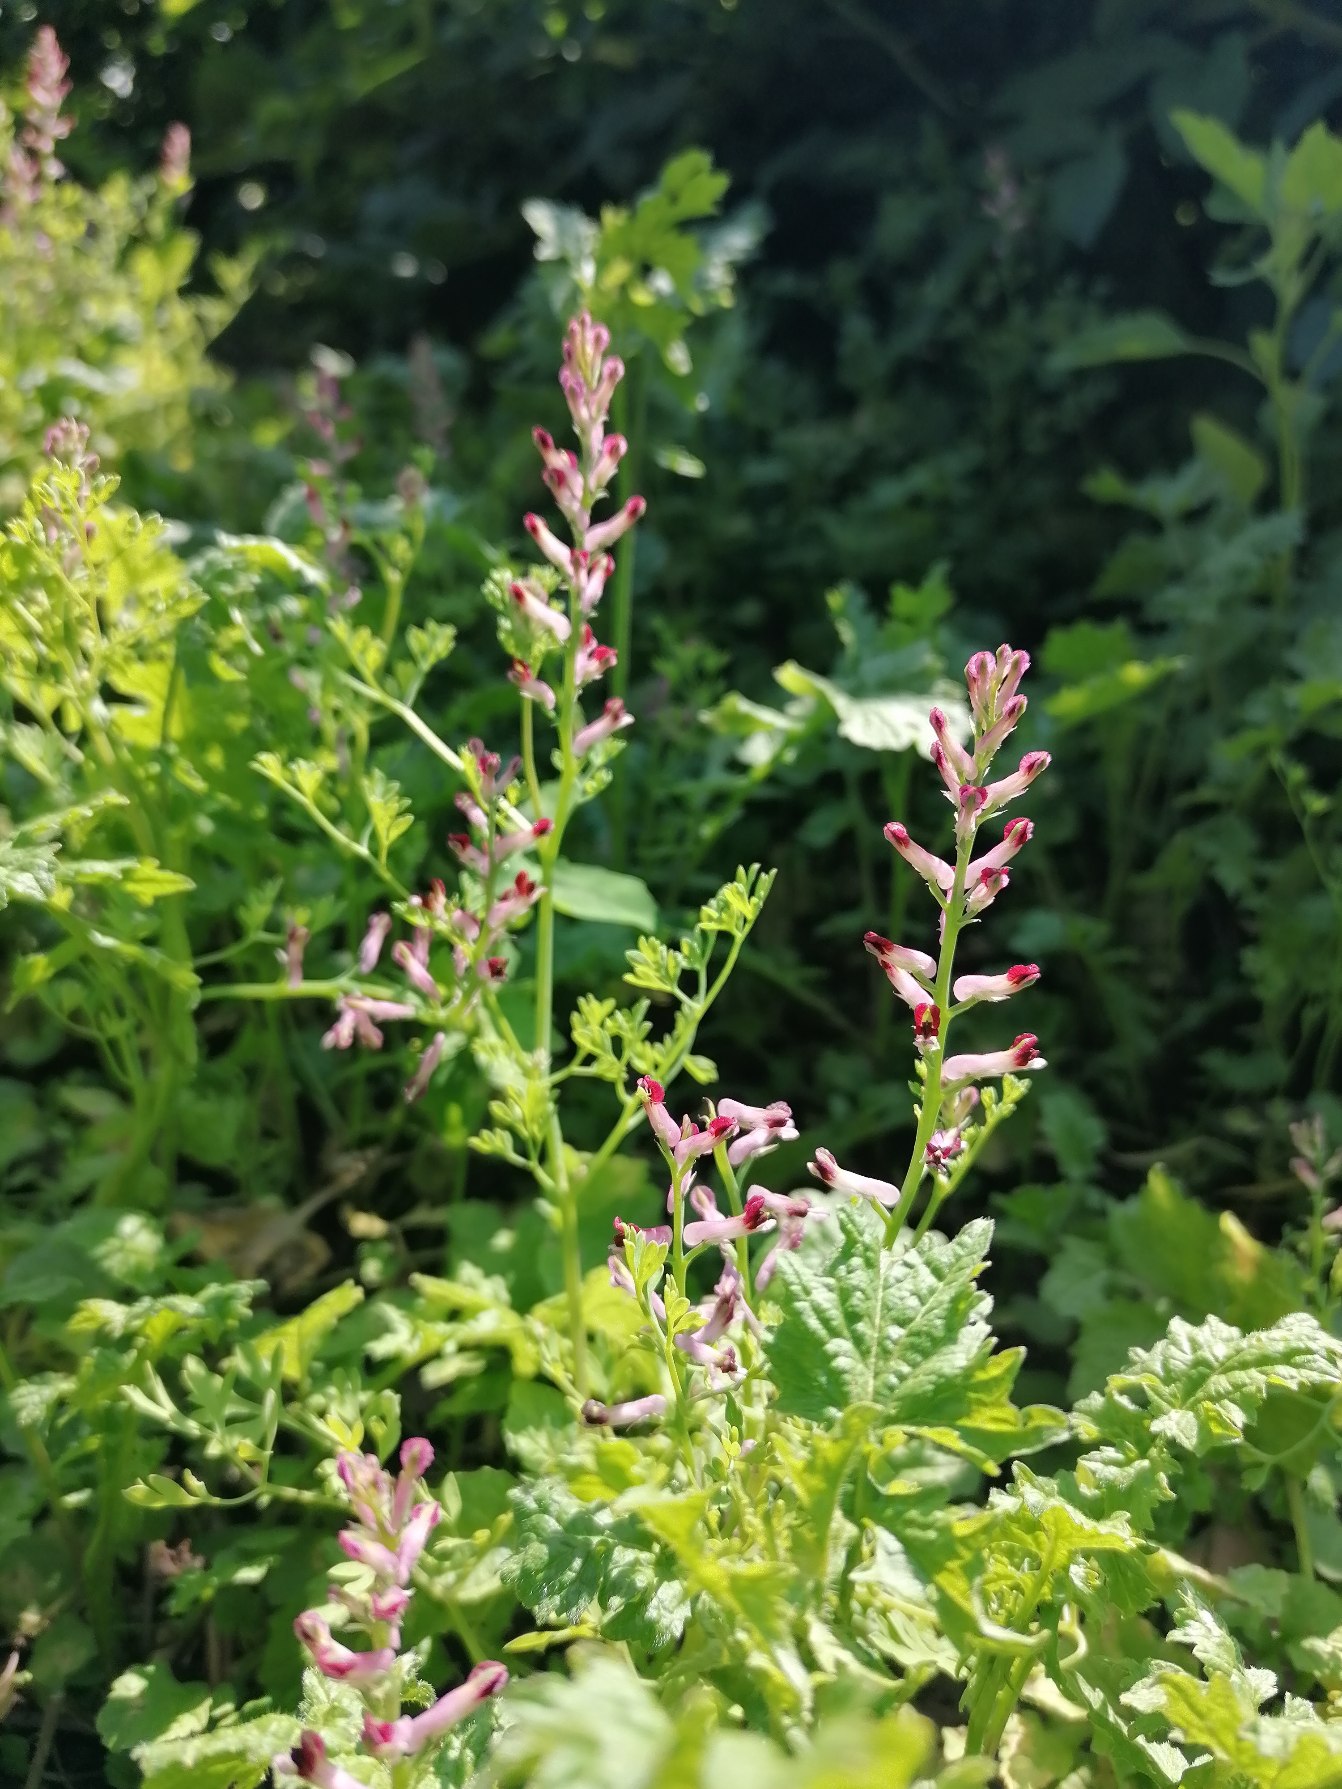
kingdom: Plantae
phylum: Tracheophyta
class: Magnoliopsida
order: Ranunculales
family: Papaveraceae
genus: Fumaria
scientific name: Fumaria muralis
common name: Mur-jordrøg
